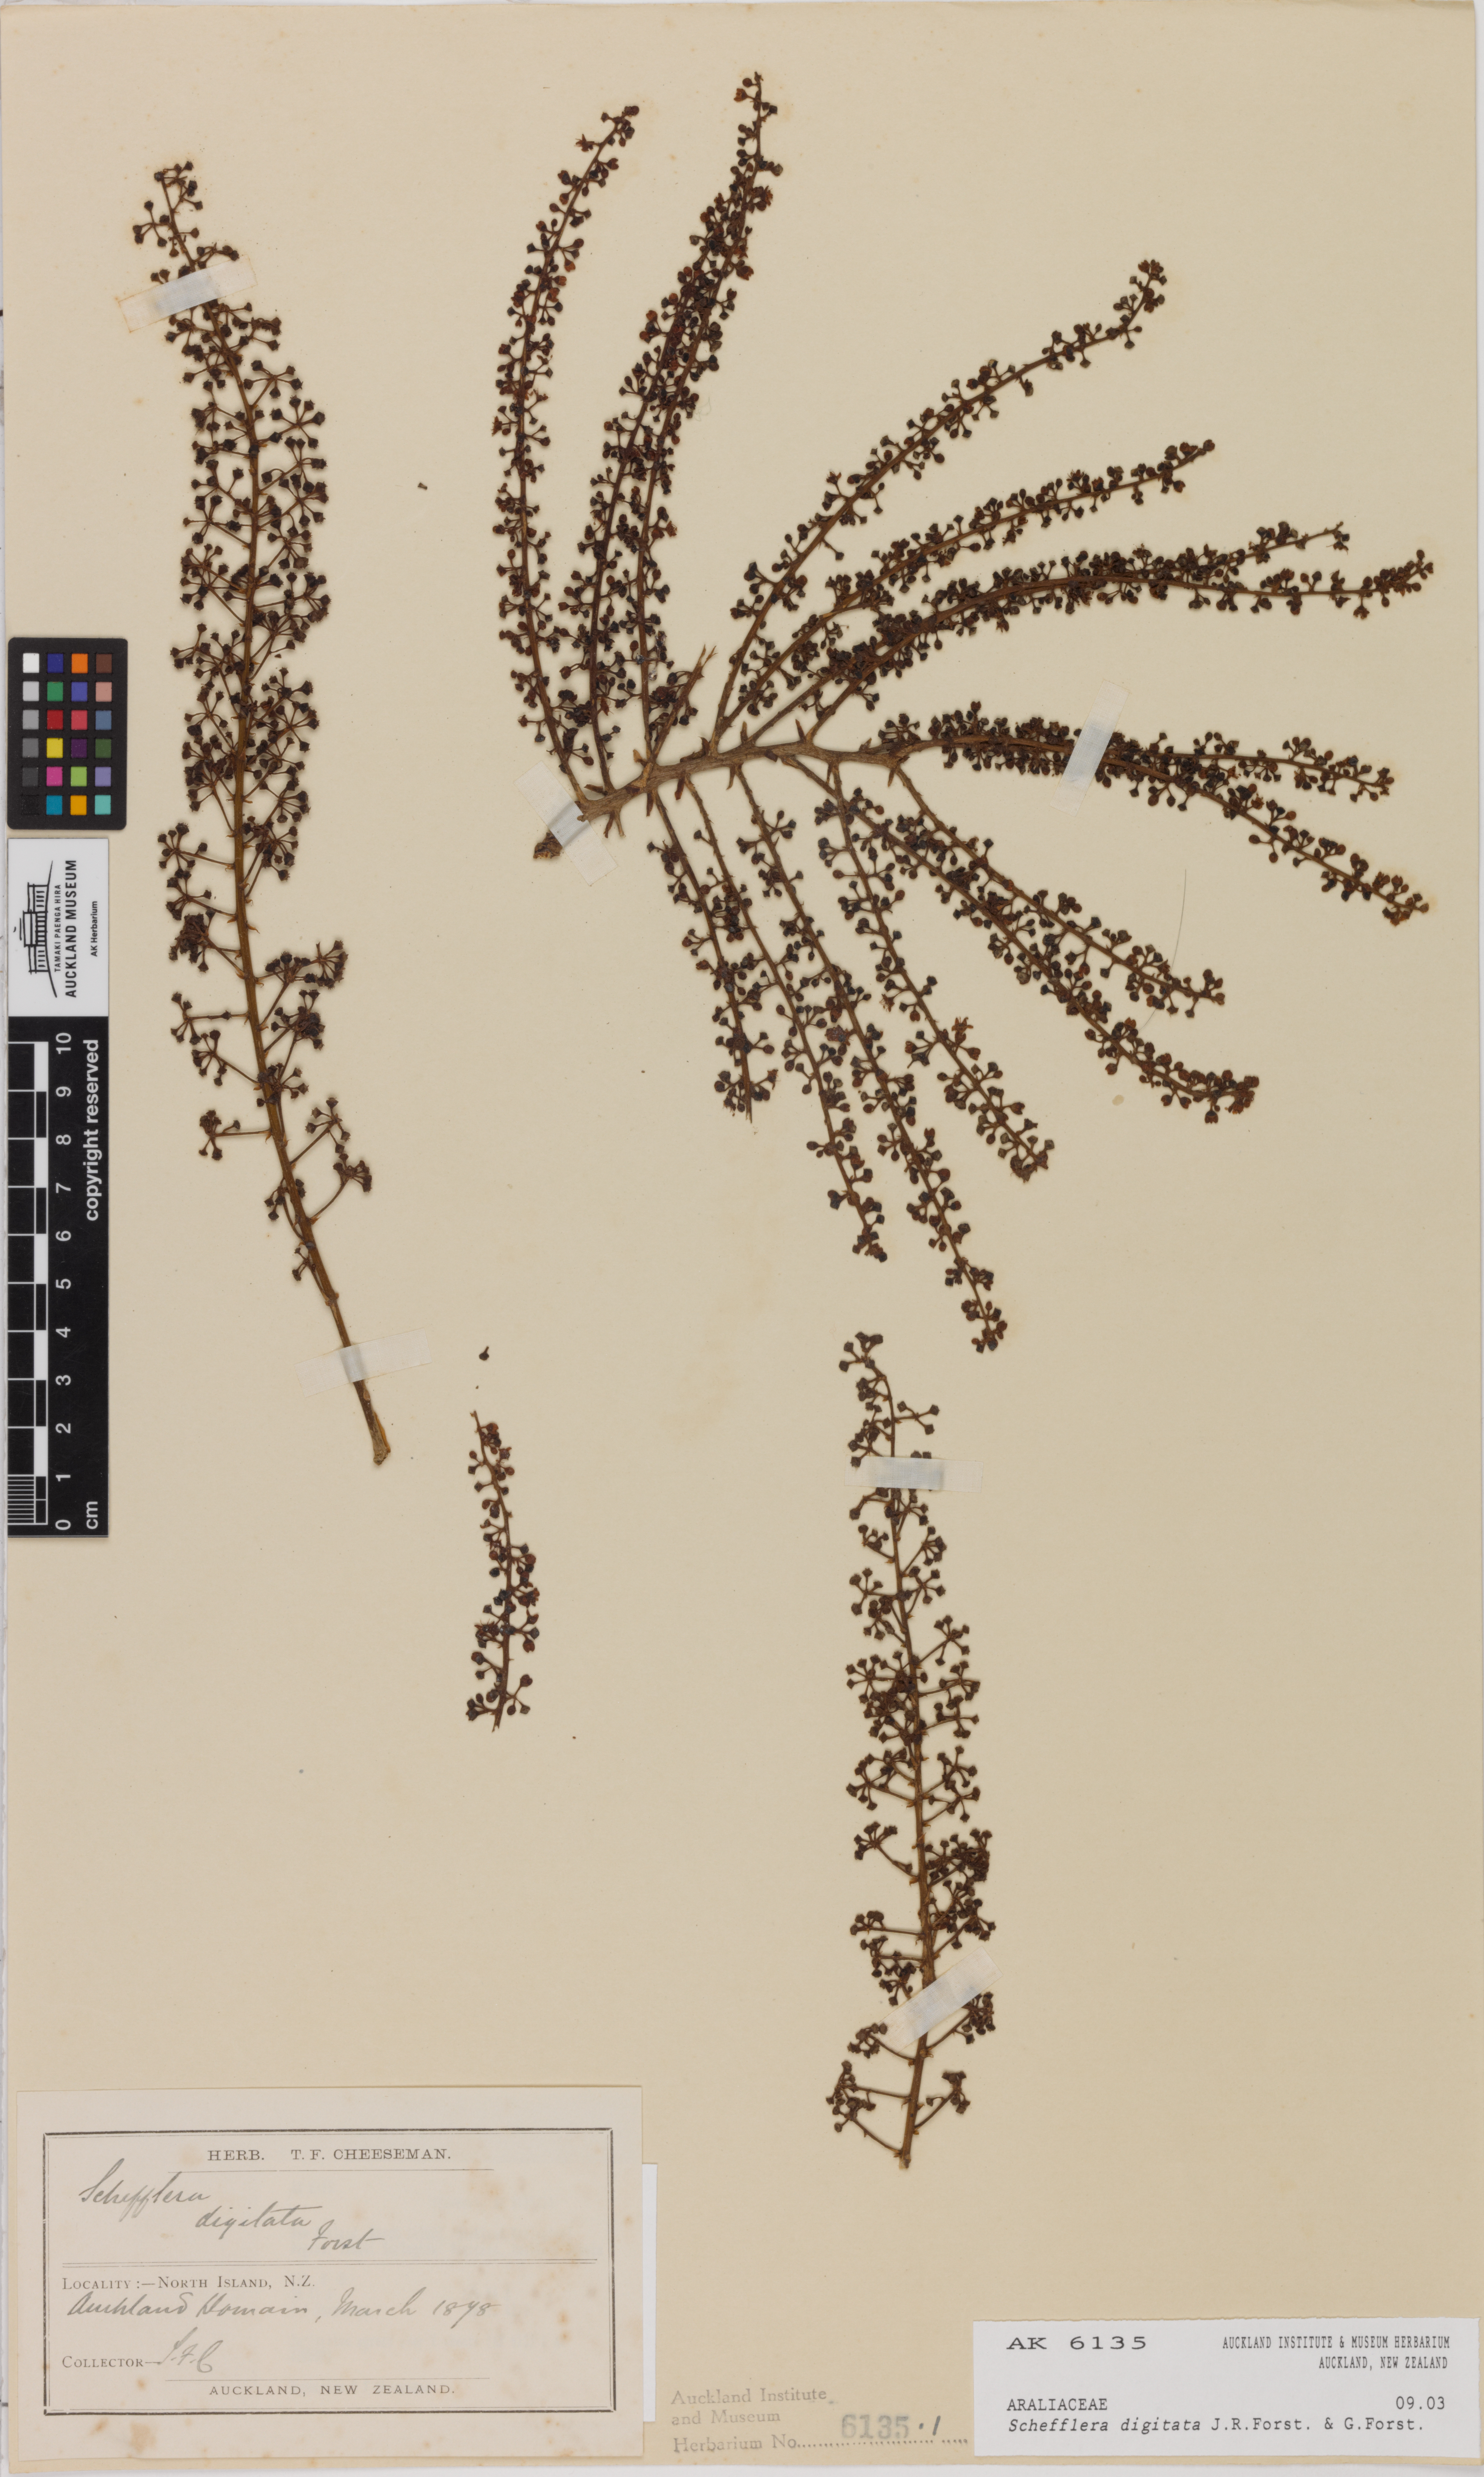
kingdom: Plantae
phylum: Tracheophyta
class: Magnoliopsida
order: Apiales
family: Araliaceae
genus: Schefflera
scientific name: Schefflera digitata
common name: Pate
